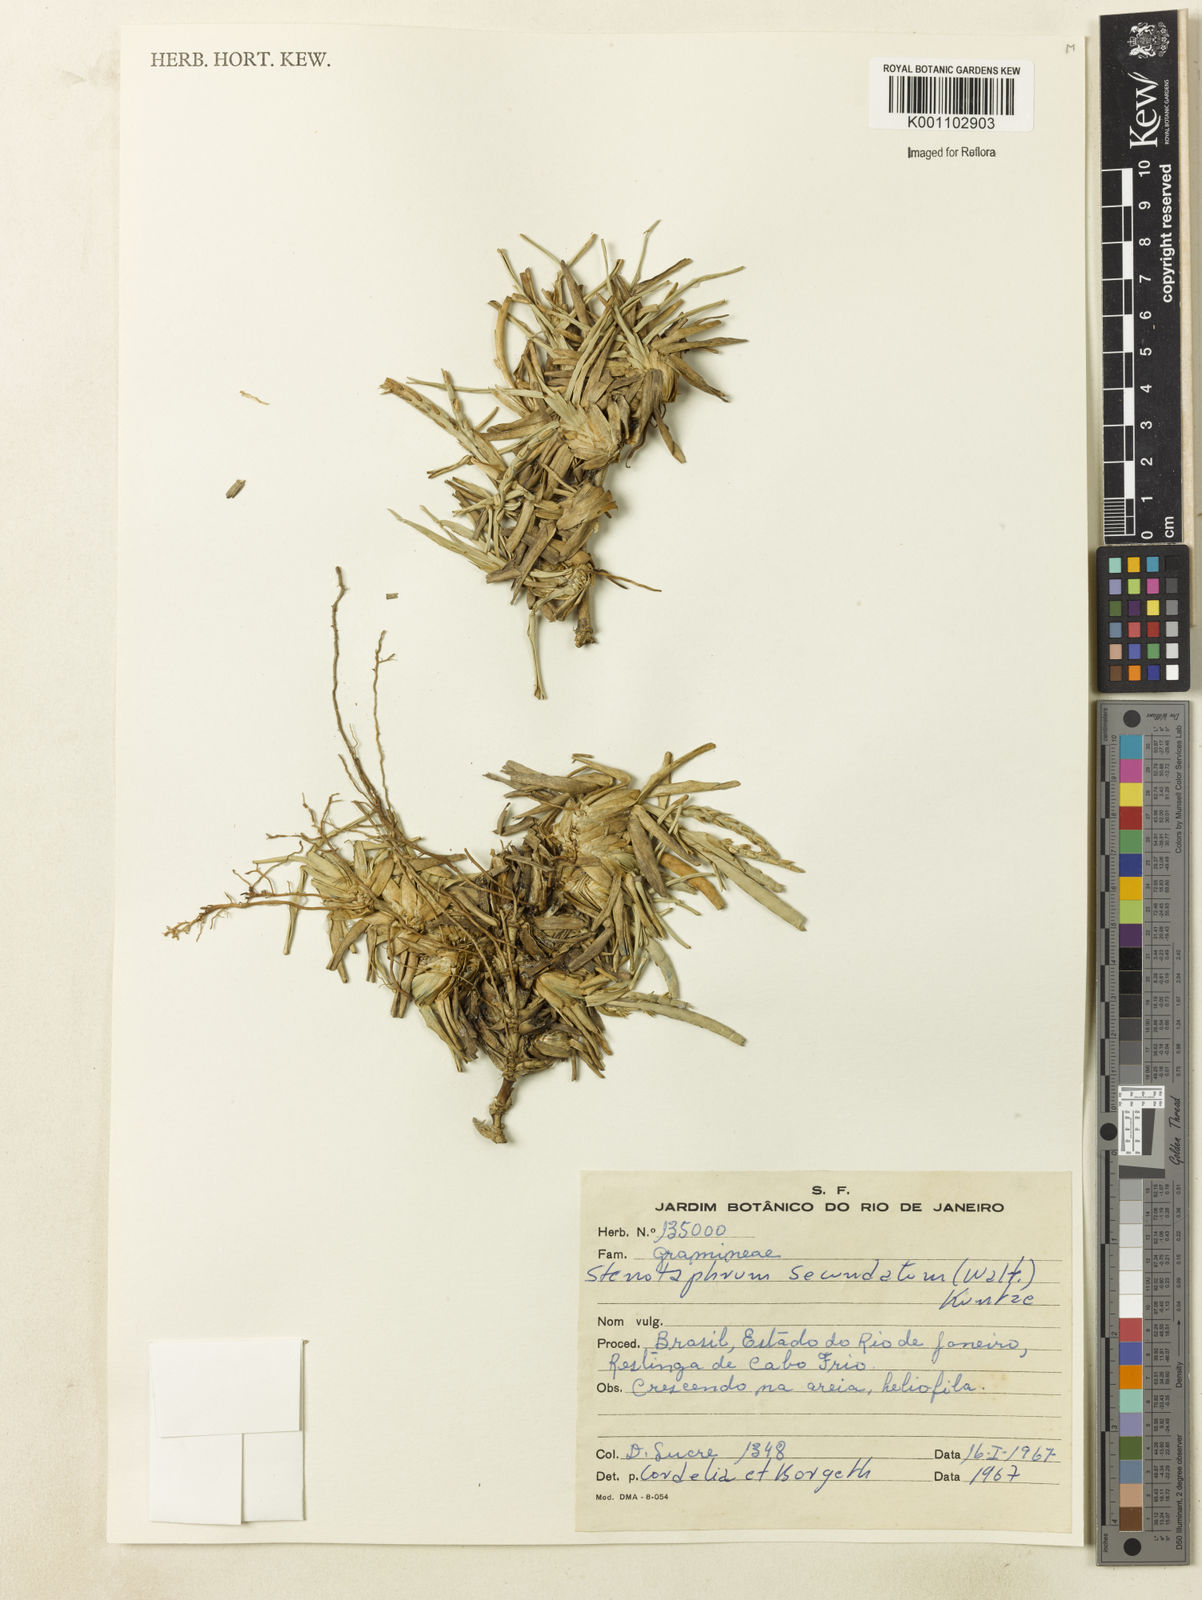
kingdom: Plantae
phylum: Tracheophyta
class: Liliopsida
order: Poales
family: Poaceae
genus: Stenotaphrum
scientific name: Stenotaphrum secundatum
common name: St. augustine grass
